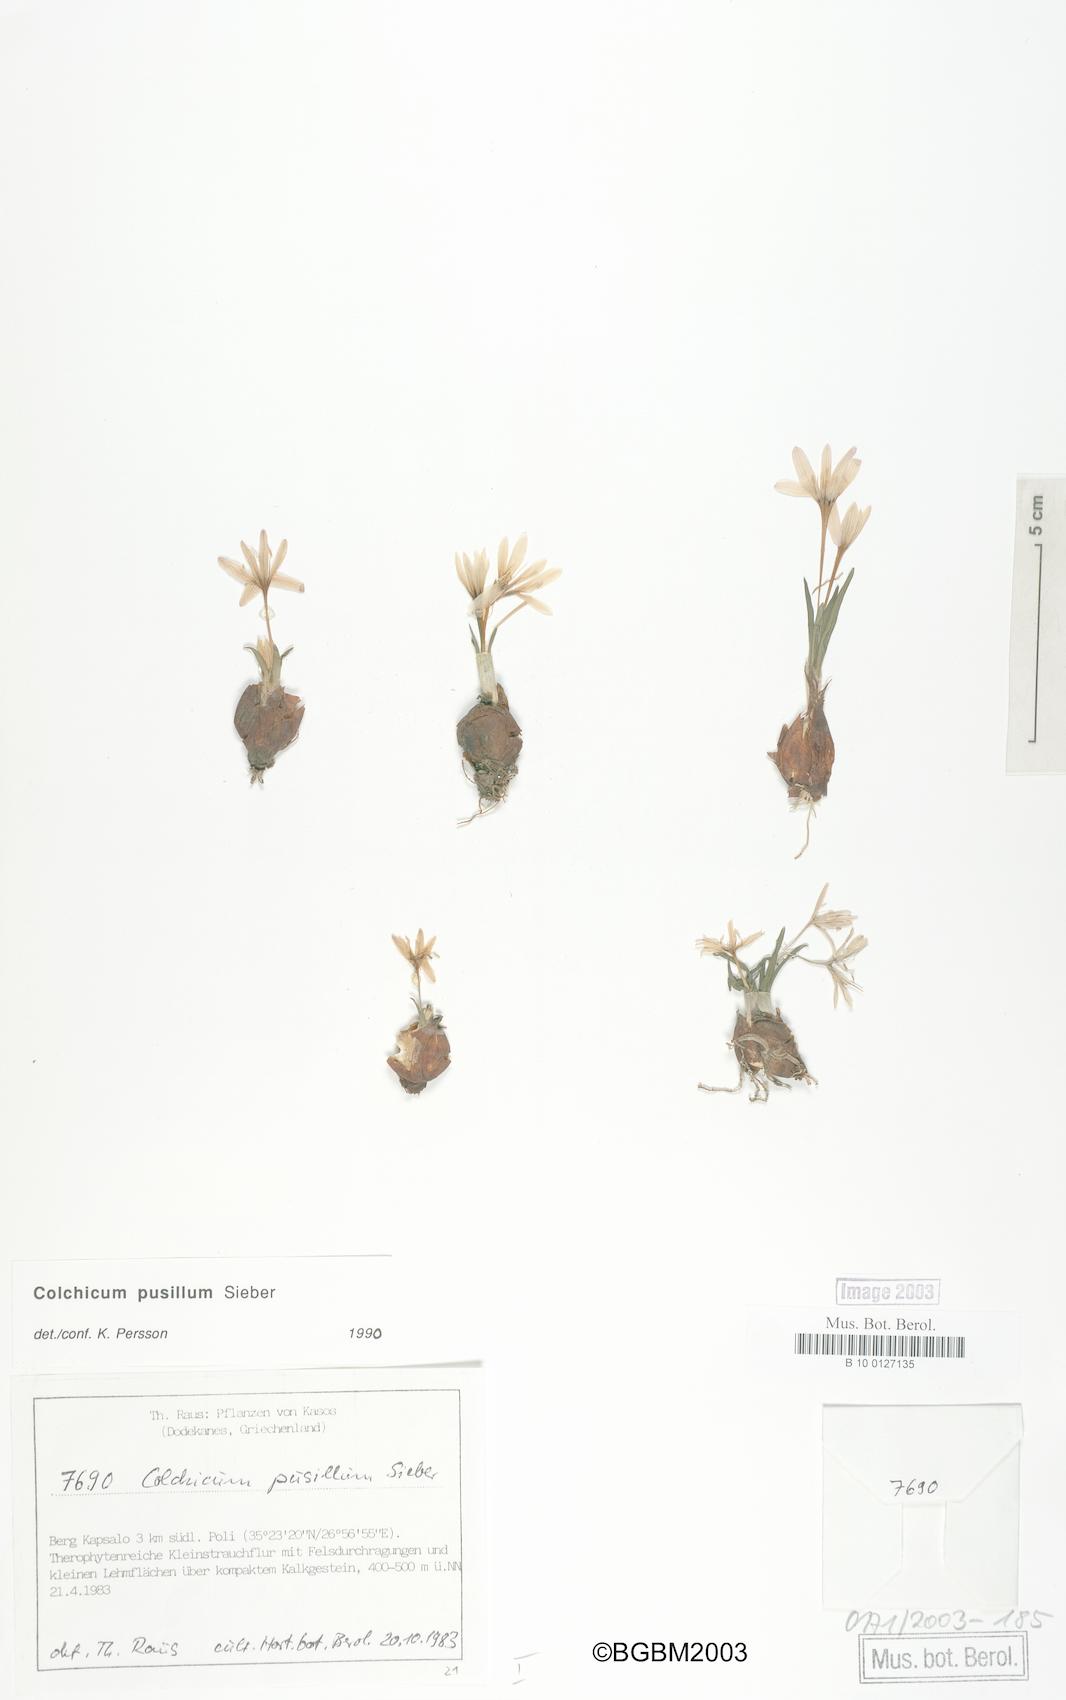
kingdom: Plantae
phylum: Tracheophyta
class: Liliopsida
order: Liliales
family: Colchicaceae
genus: Colchicum
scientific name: Colchicum pusillum
